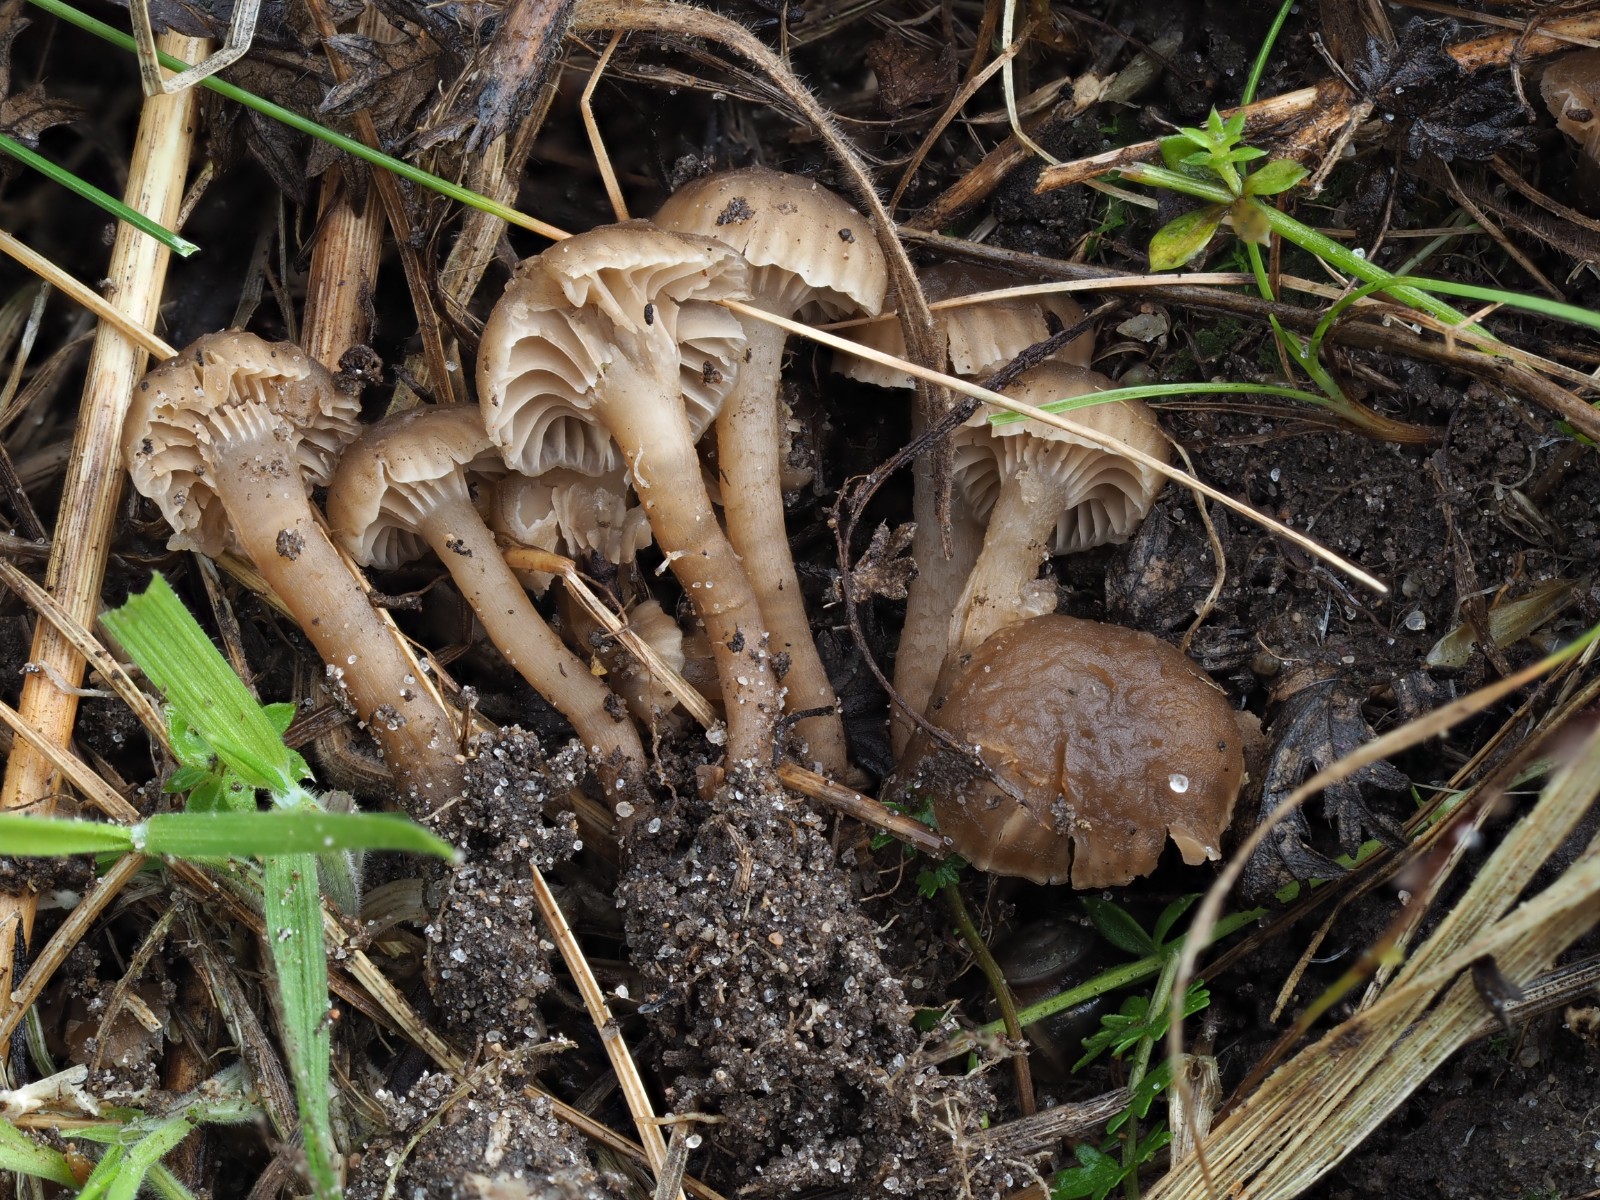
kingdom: Fungi
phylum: Basidiomycota
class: Agaricomycetes
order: Agaricales
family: Clavariaceae
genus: Hodophilus
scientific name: Hodophilus
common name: kratvokshat
